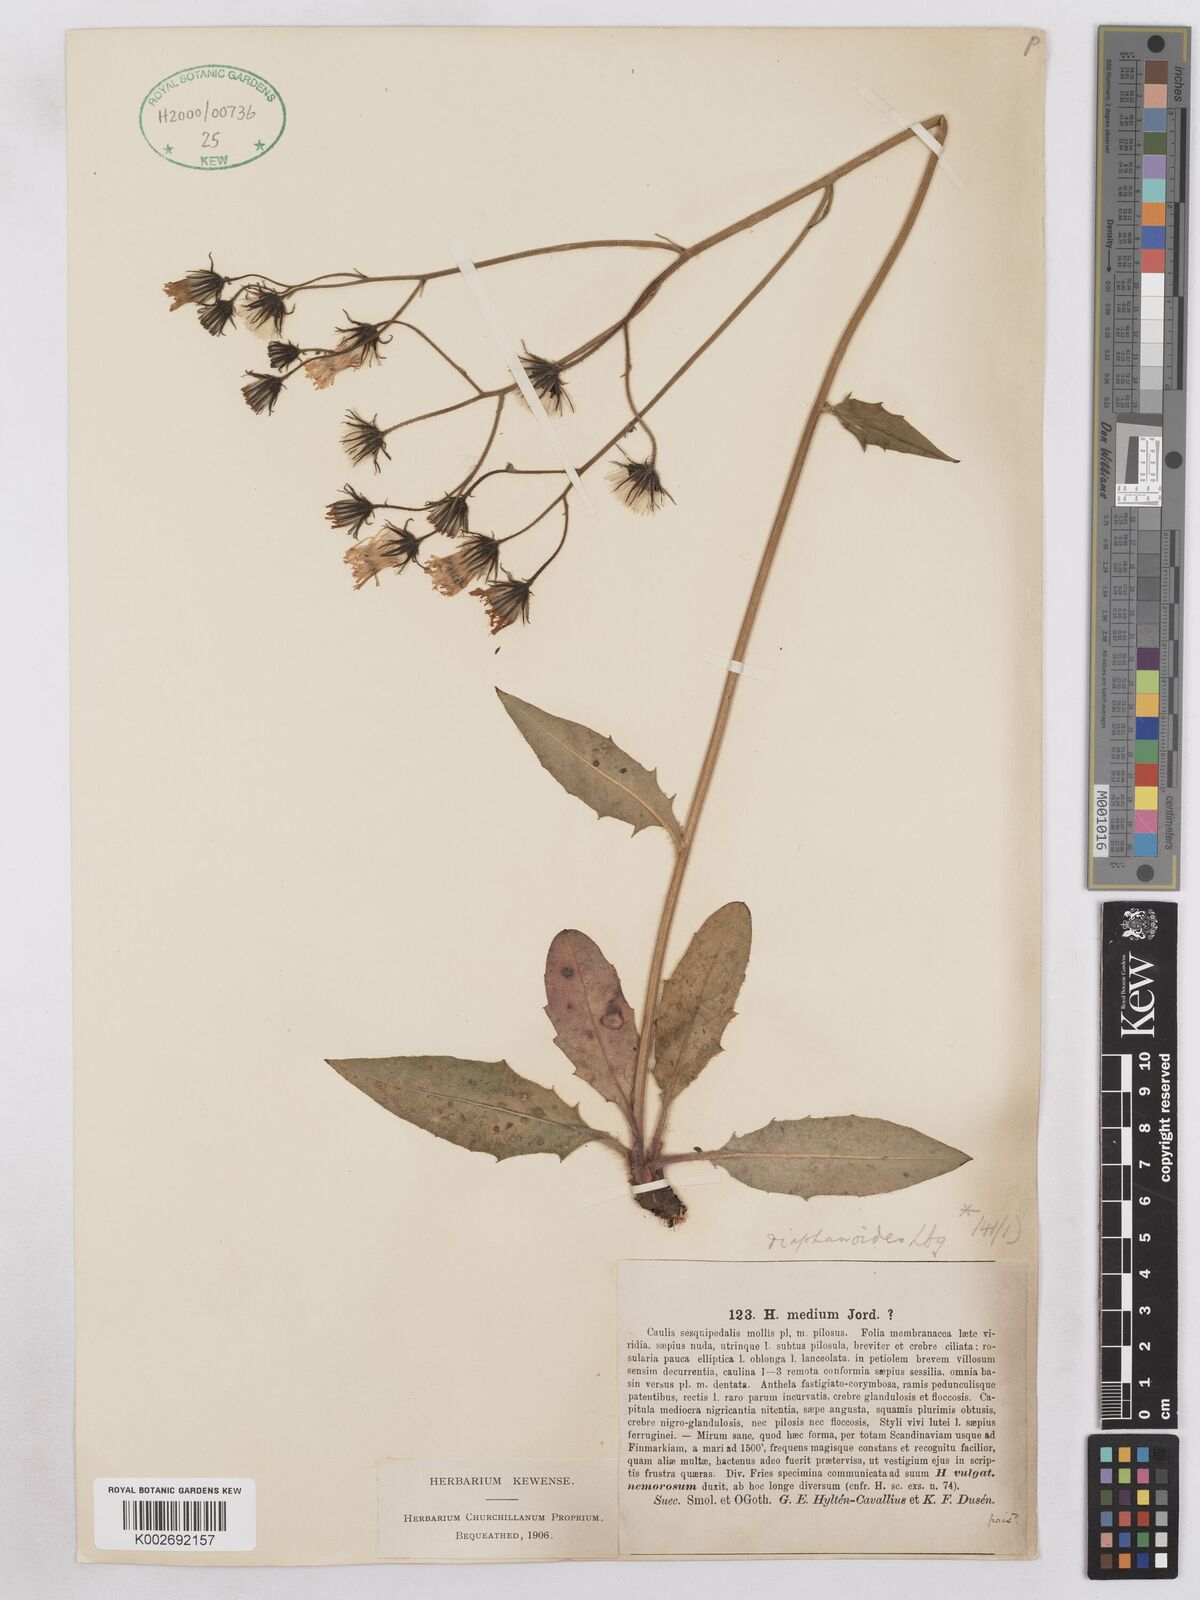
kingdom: Plantae
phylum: Tracheophyta
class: Magnoliopsida
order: Asterales
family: Asteraceae
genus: Hieracium
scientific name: Hieracium diaphanoides
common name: Fine-bracted hawkweed
